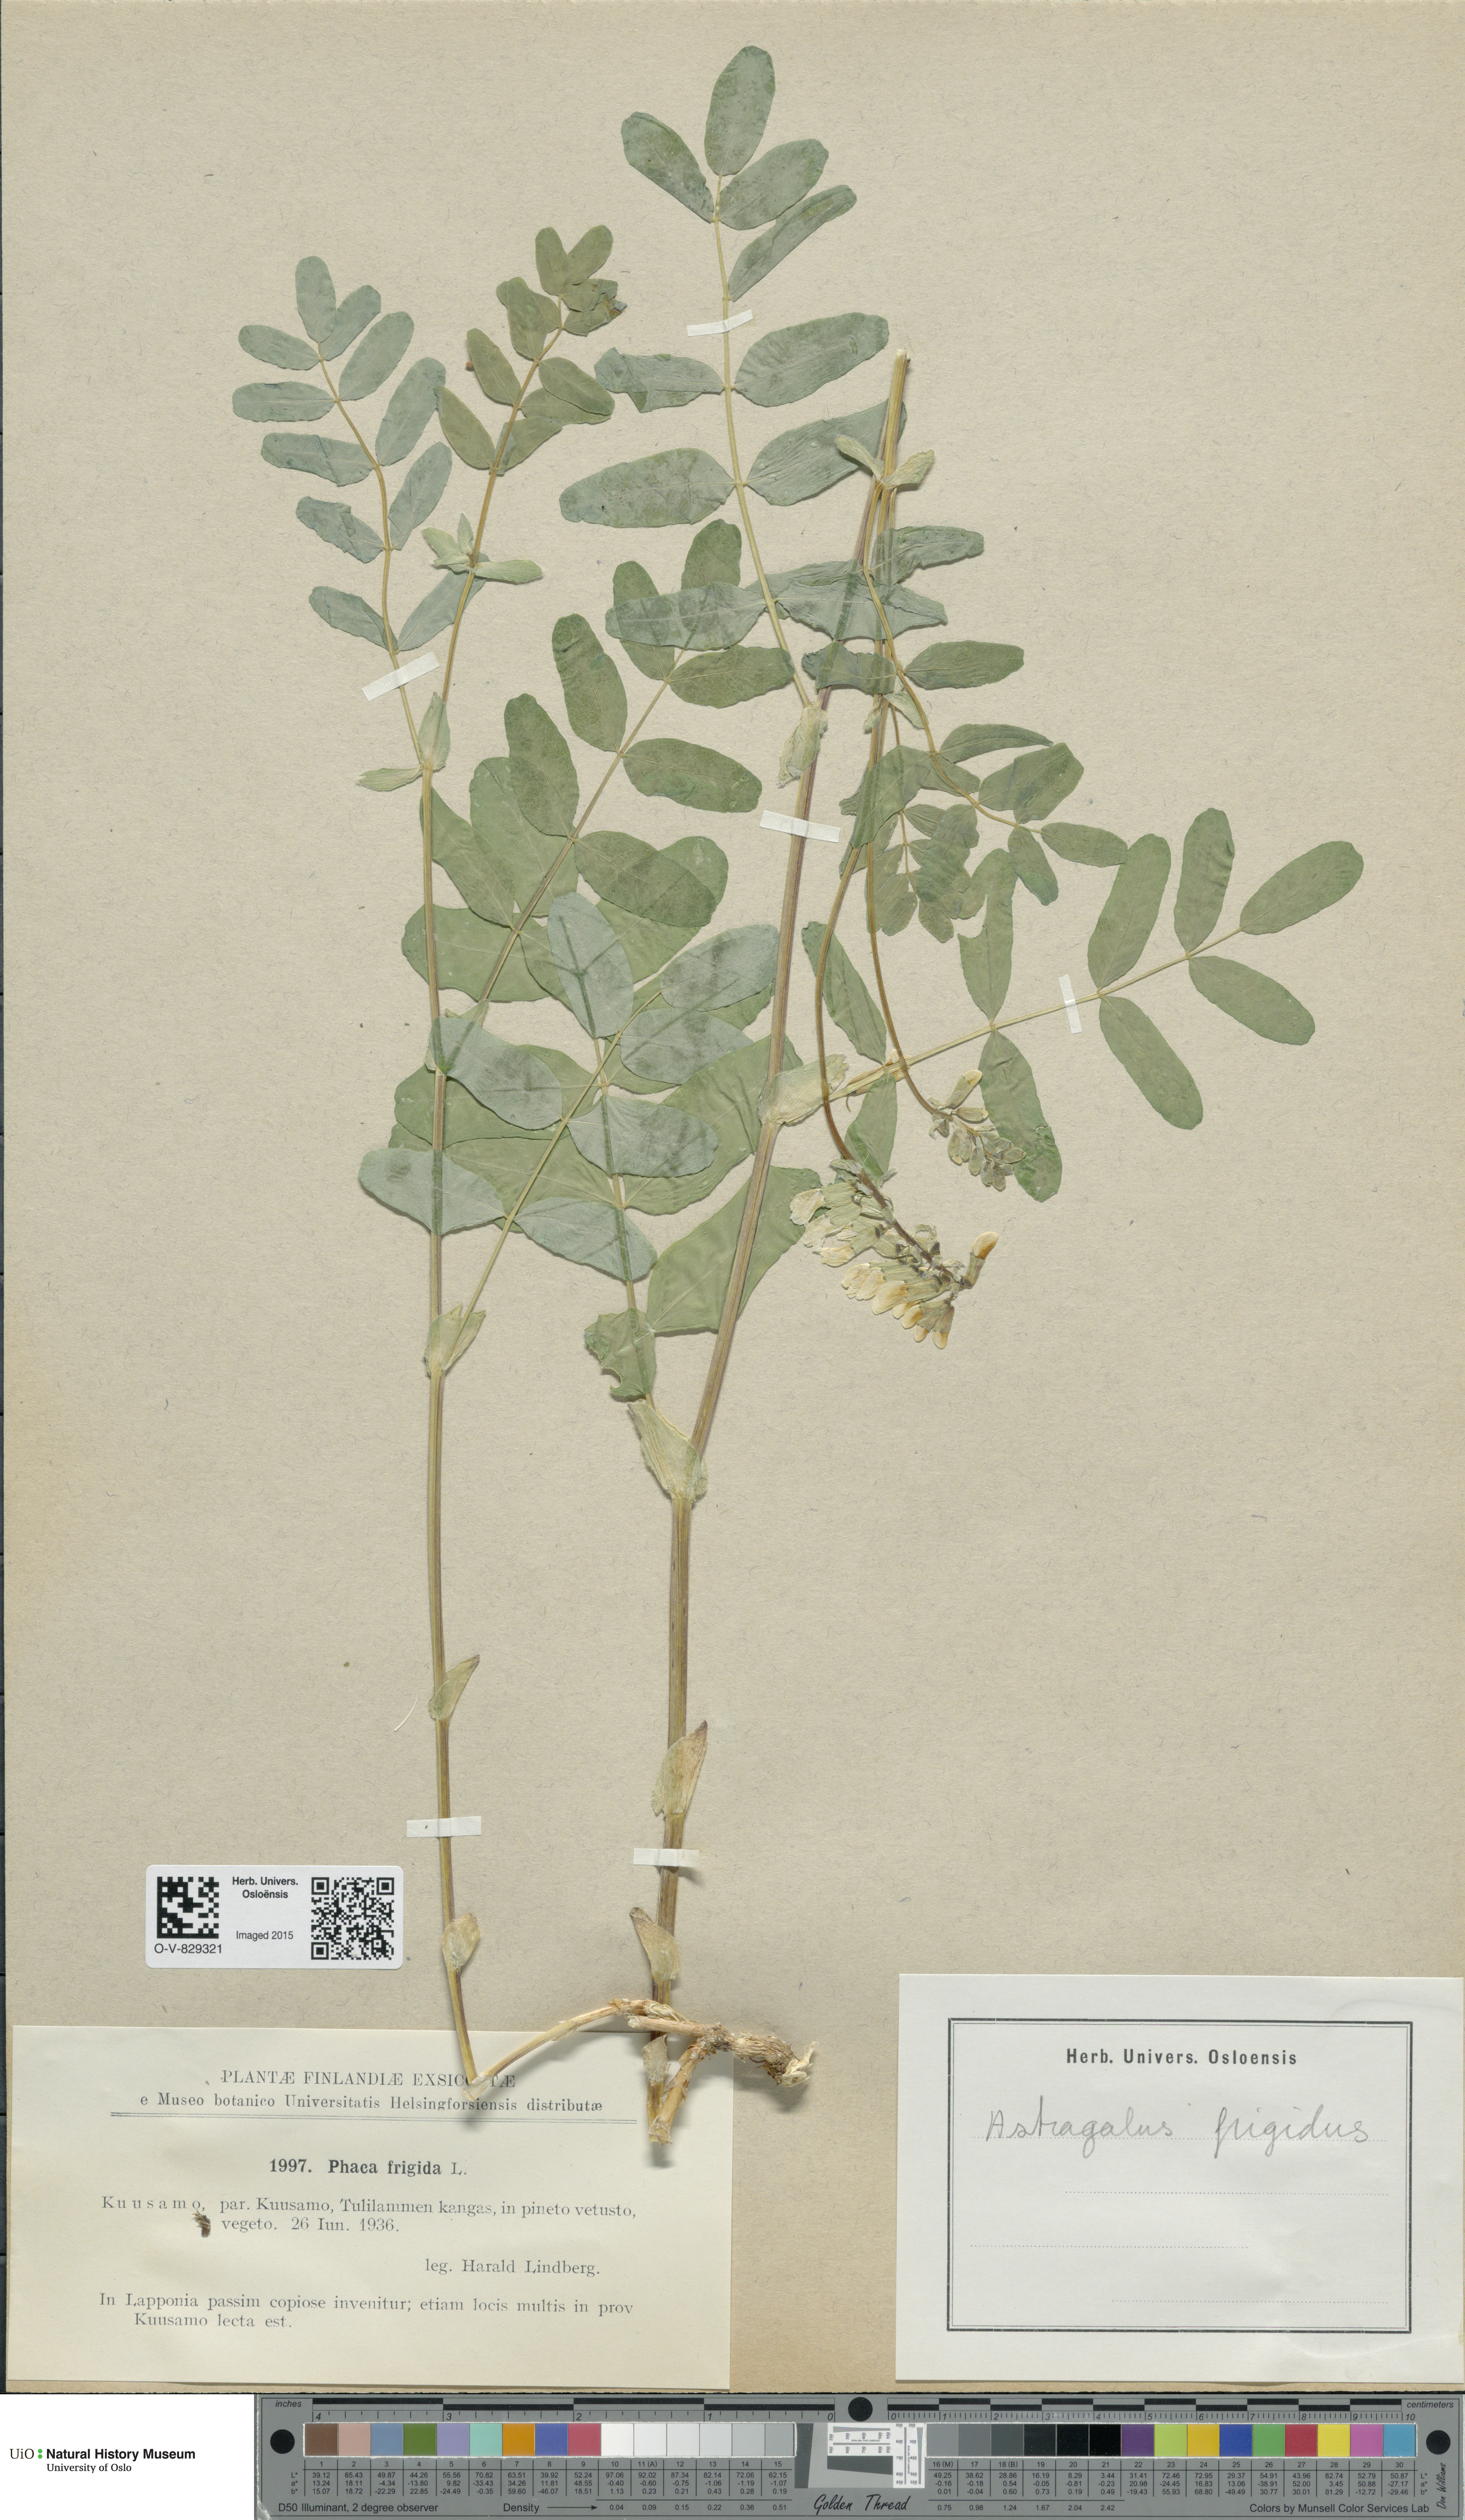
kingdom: Plantae
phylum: Tracheophyta
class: Magnoliopsida
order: Fabales
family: Fabaceae
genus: Astragalus
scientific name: Astragalus frigidus
